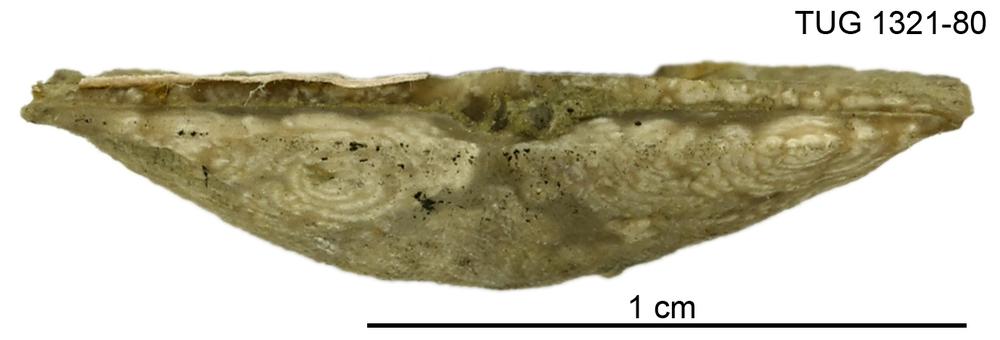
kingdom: Animalia
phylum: Brachiopoda
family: Sowerbyellidae
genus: Sowerbyella
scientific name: Sowerbyella
